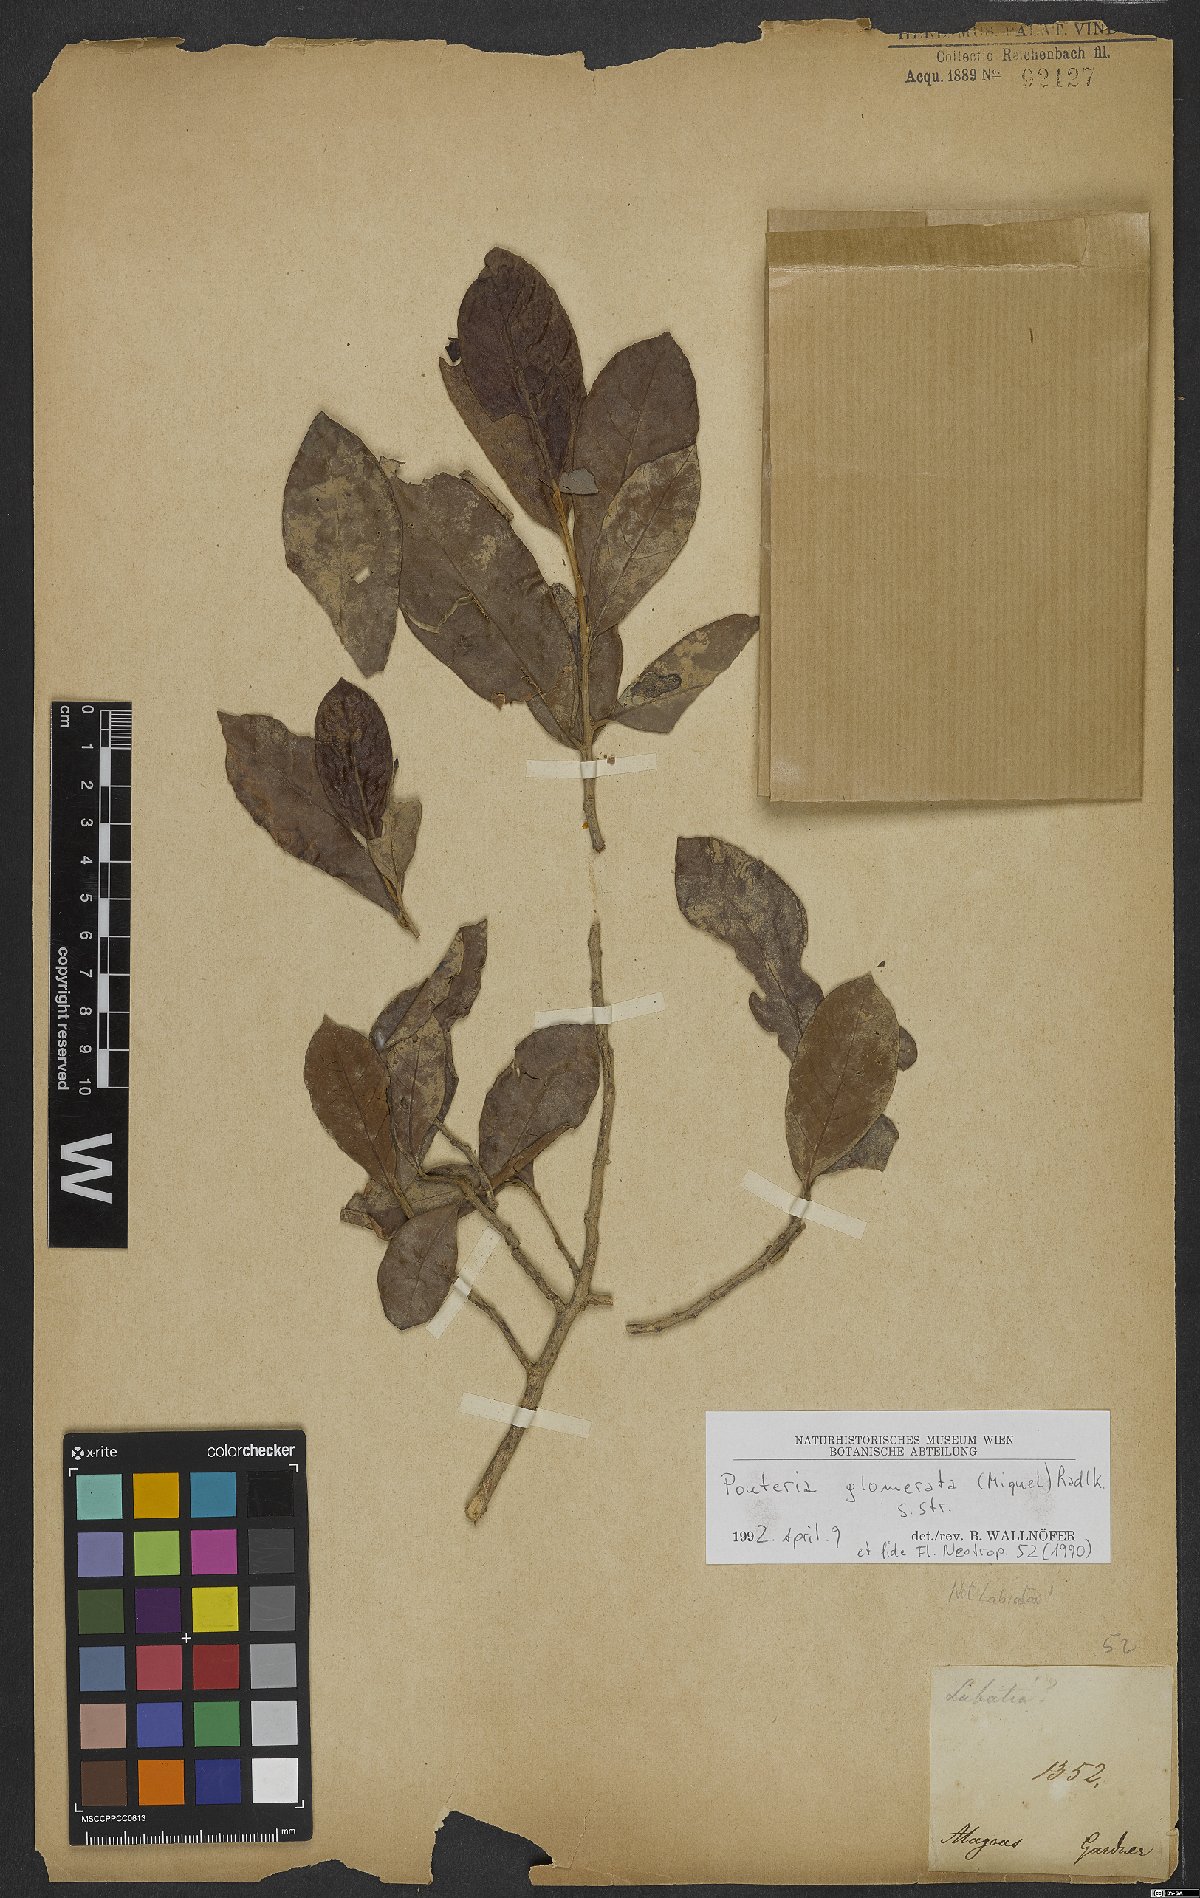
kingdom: Plantae
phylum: Tracheophyta
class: Magnoliopsida
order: Ericales
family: Sapotaceae
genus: Pouteria
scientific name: Pouteria glomerata
